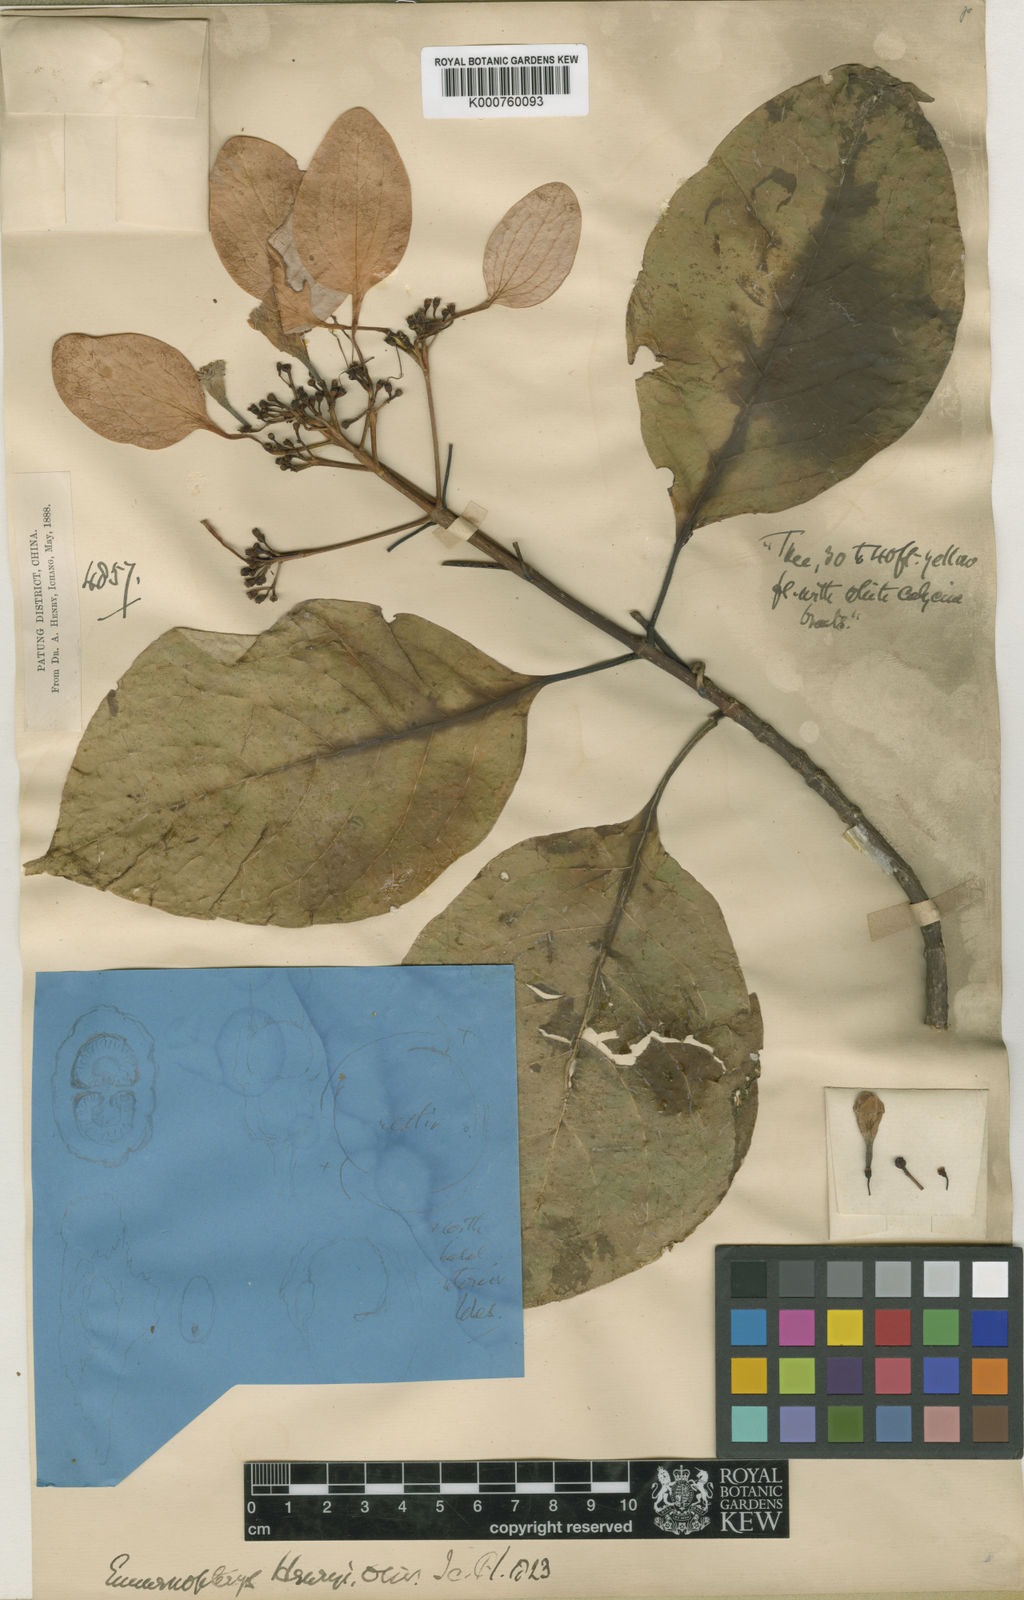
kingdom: Plantae
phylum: Tracheophyta
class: Magnoliopsida
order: Gentianales
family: Rubiaceae
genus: Emmenopterys
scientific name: Emmenopterys henryi
